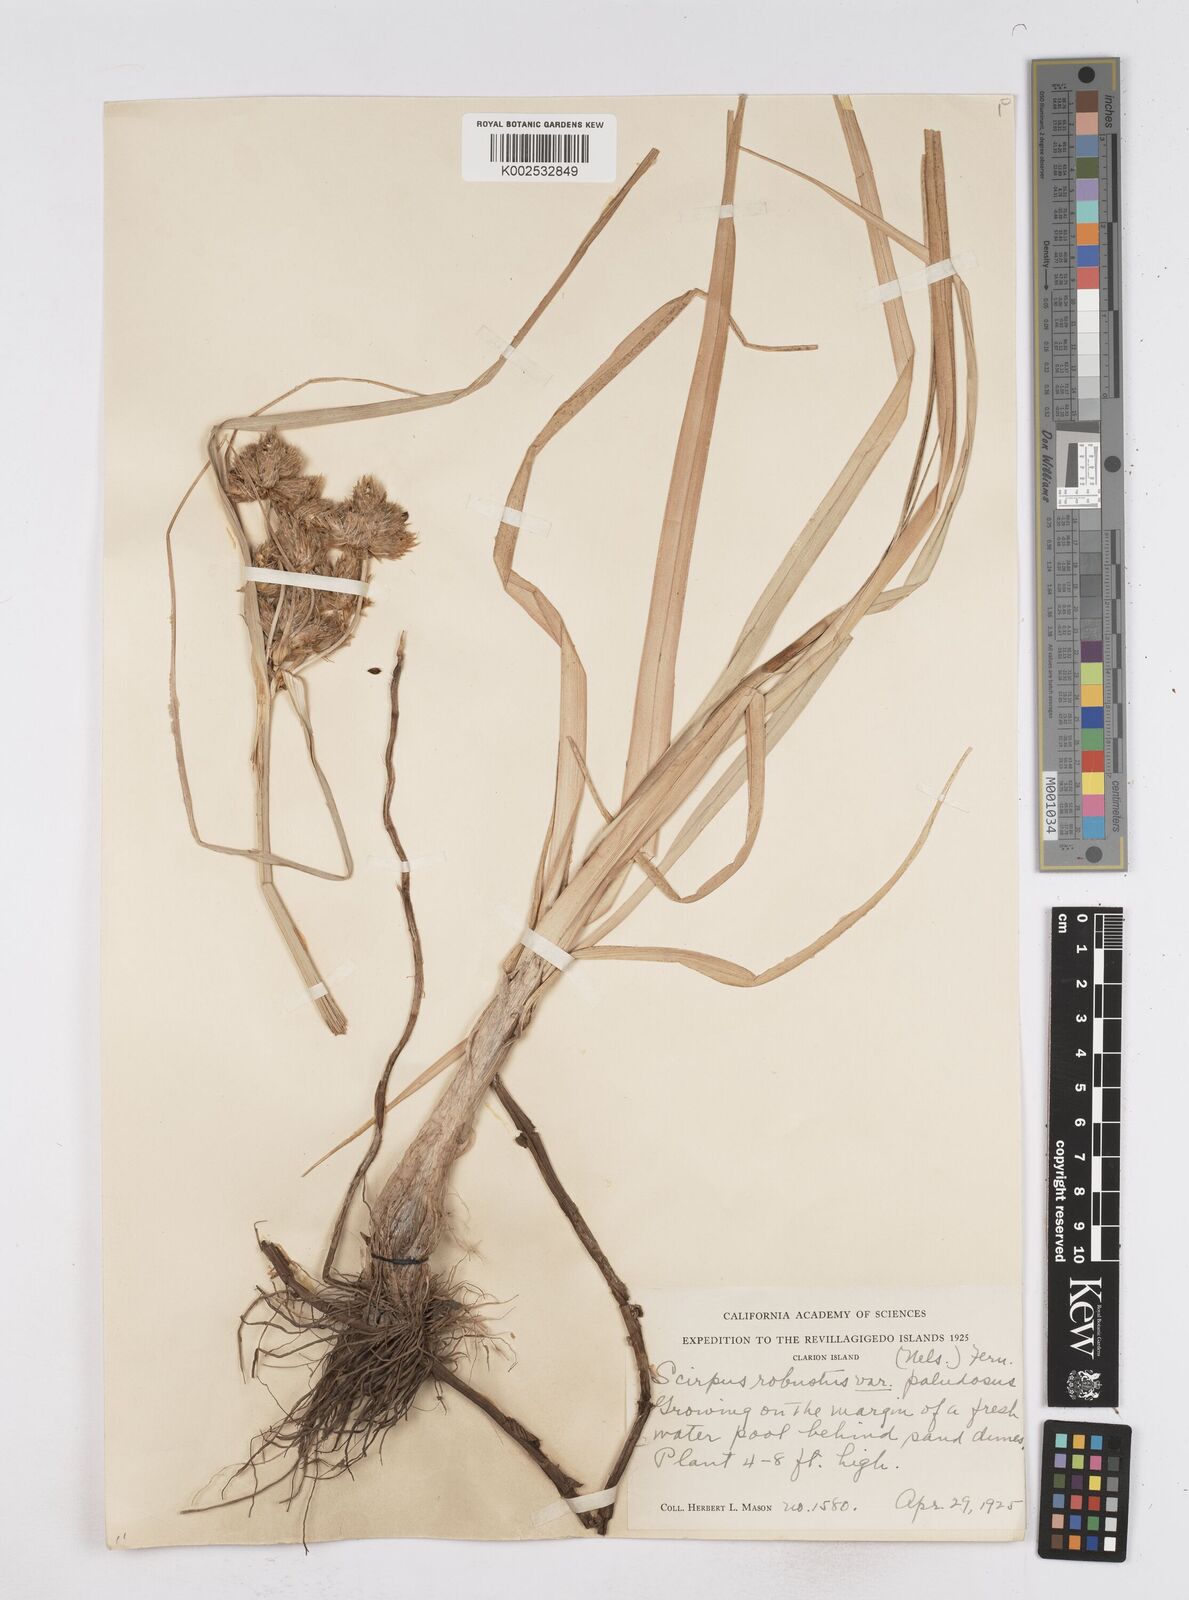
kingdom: Plantae
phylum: Tracheophyta
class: Liliopsida
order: Poales
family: Cyperaceae
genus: Bolboschoenus
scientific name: Bolboschoenus maritimus
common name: Sea club-rush
